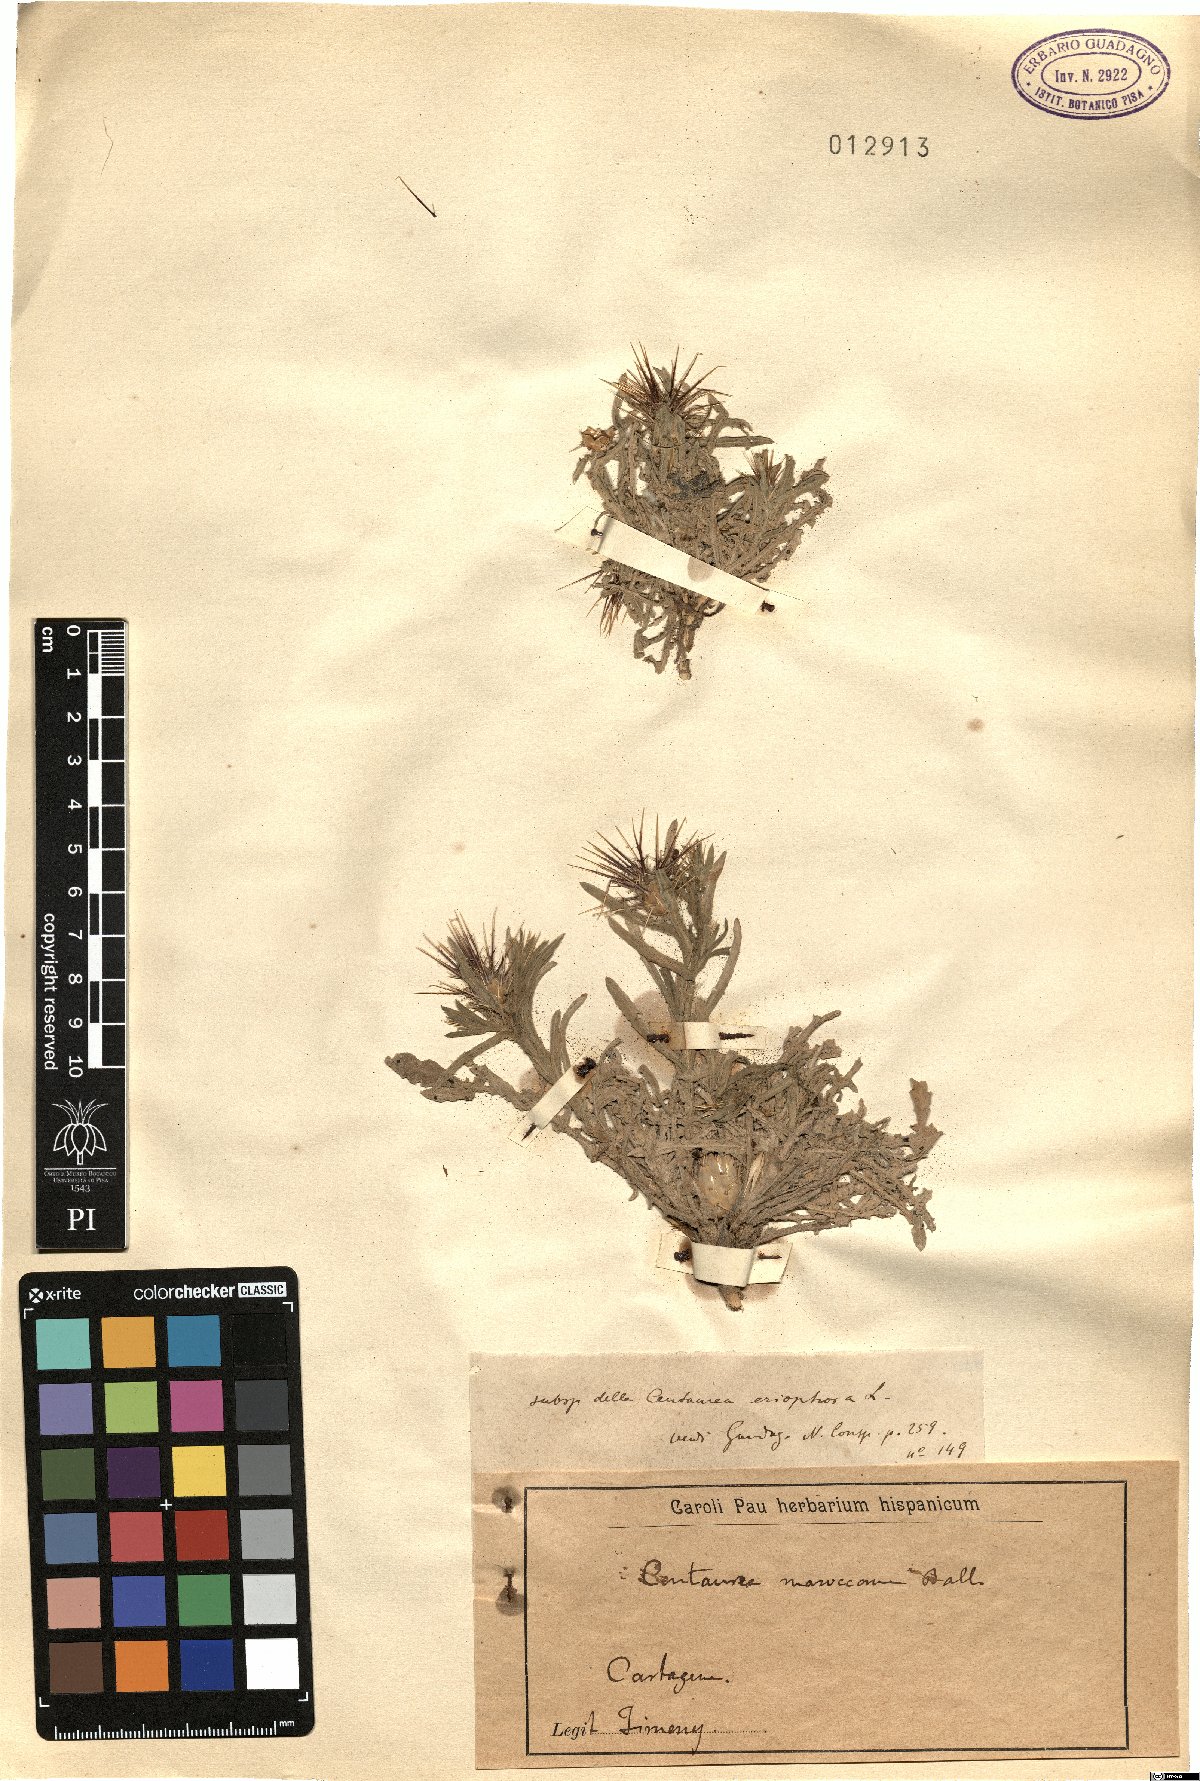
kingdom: Plantae
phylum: Tracheophyta
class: Magnoliopsida
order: Asterales
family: Asteraceae
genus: Centaurea
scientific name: Centaurea maroccana
